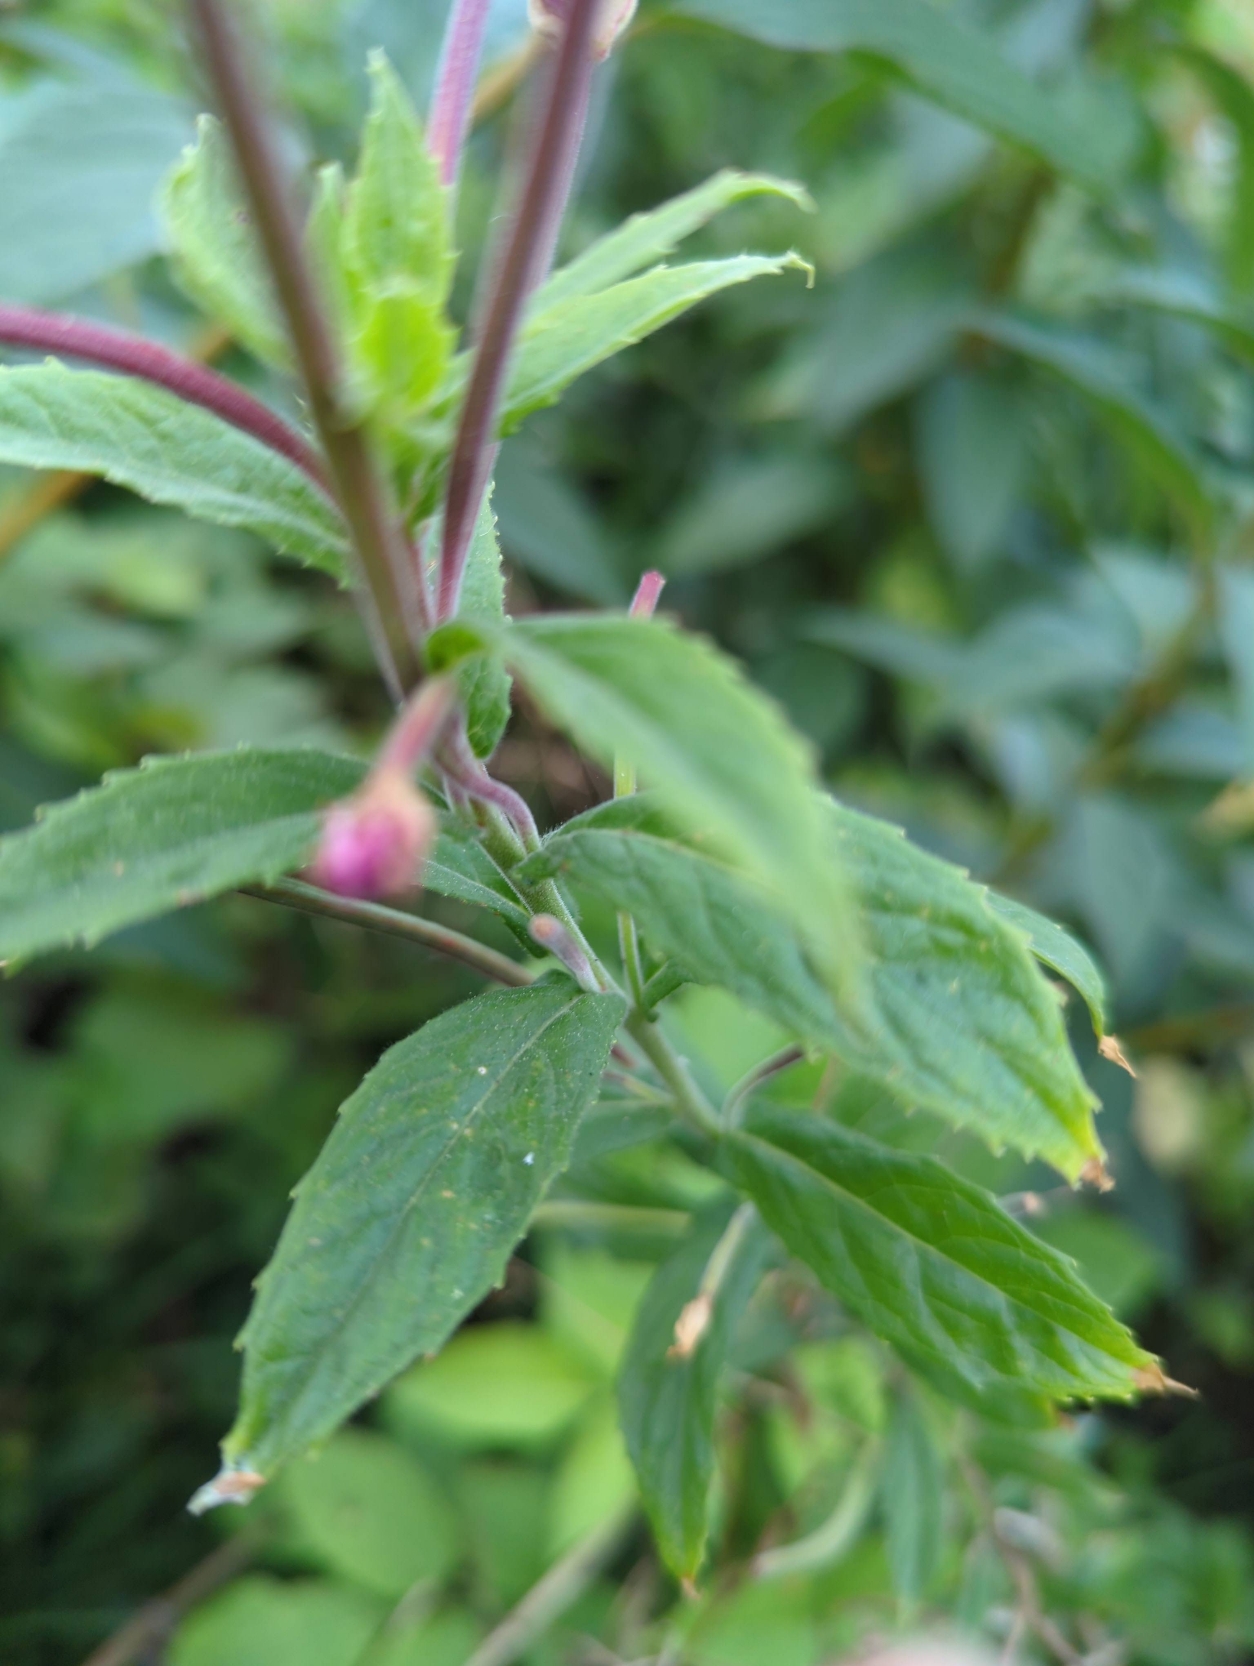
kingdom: Plantae
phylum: Tracheophyta
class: Magnoliopsida
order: Myrtales
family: Onagraceae
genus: Epilobium
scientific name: Epilobium hirsutum
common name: Lådden dueurt
